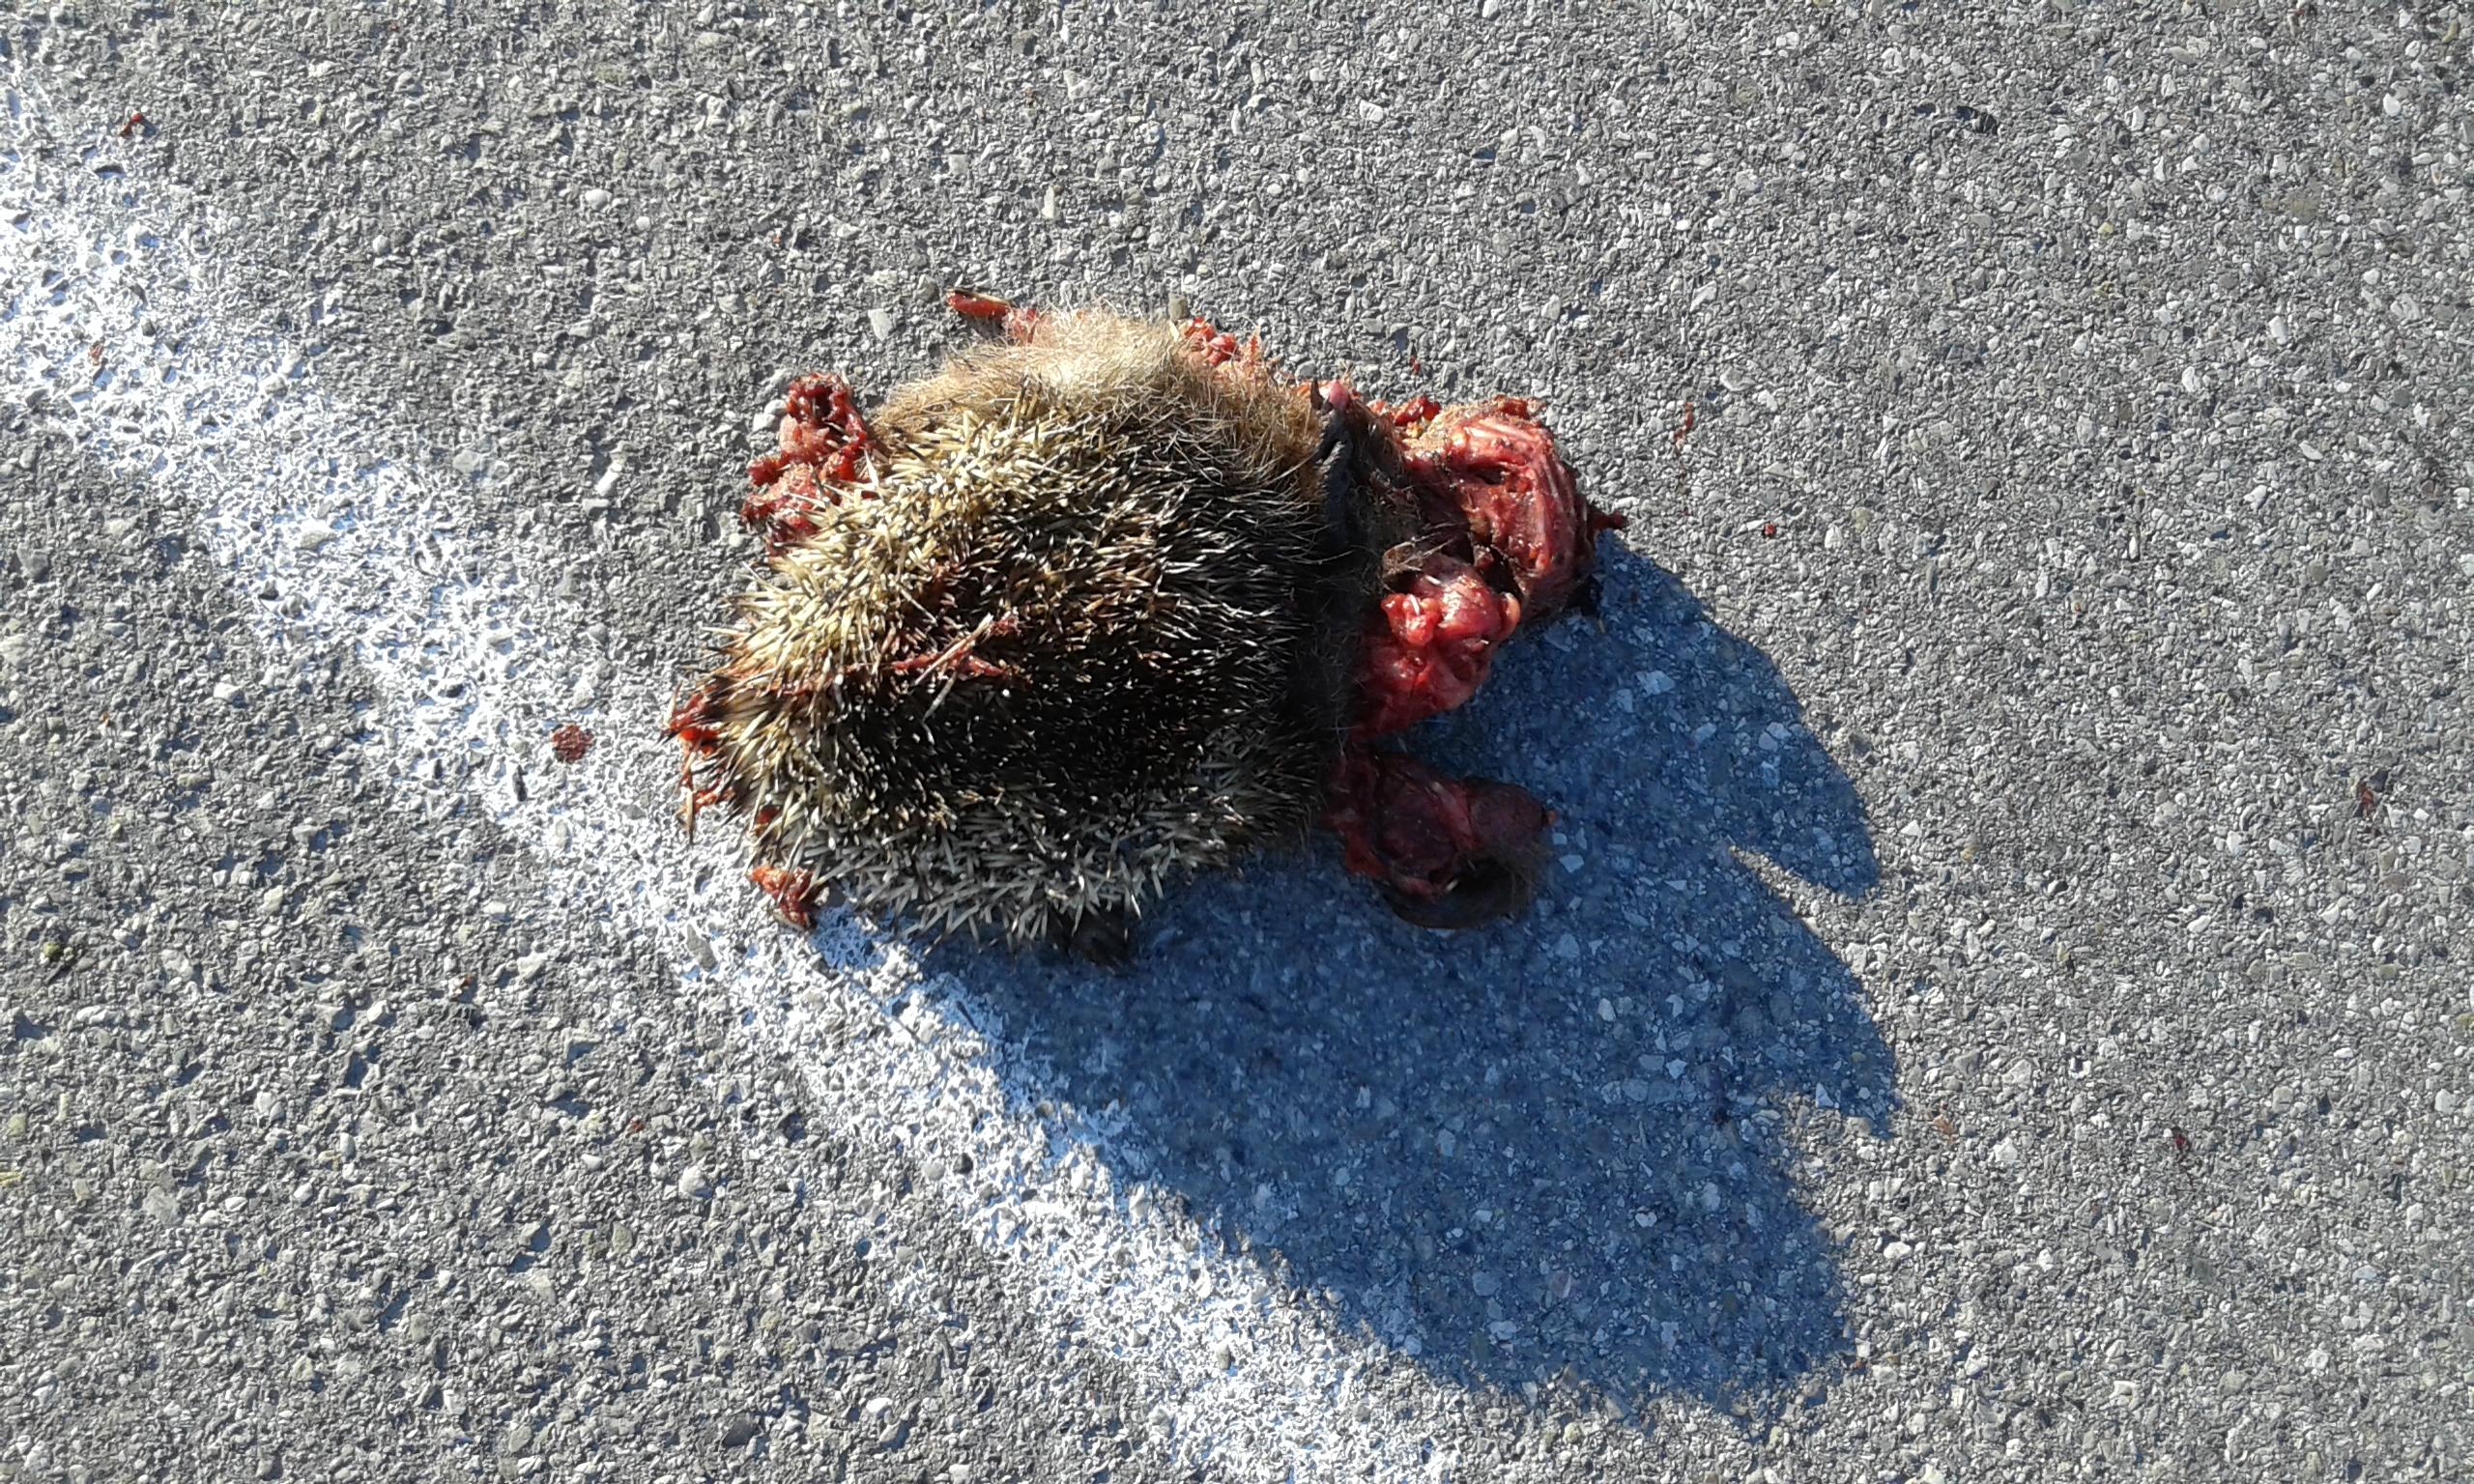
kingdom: Animalia
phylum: Chordata
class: Mammalia
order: Erinaceomorpha
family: Erinaceidae
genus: Erinaceus
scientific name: Erinaceus
